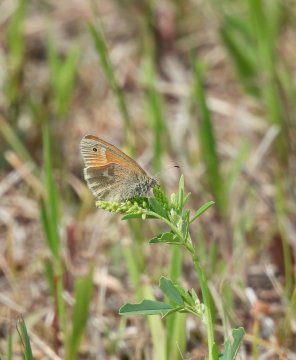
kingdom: Animalia
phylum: Arthropoda
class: Insecta
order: Lepidoptera
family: Nymphalidae
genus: Coenonympha
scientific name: Coenonympha tullia
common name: Large Heath
